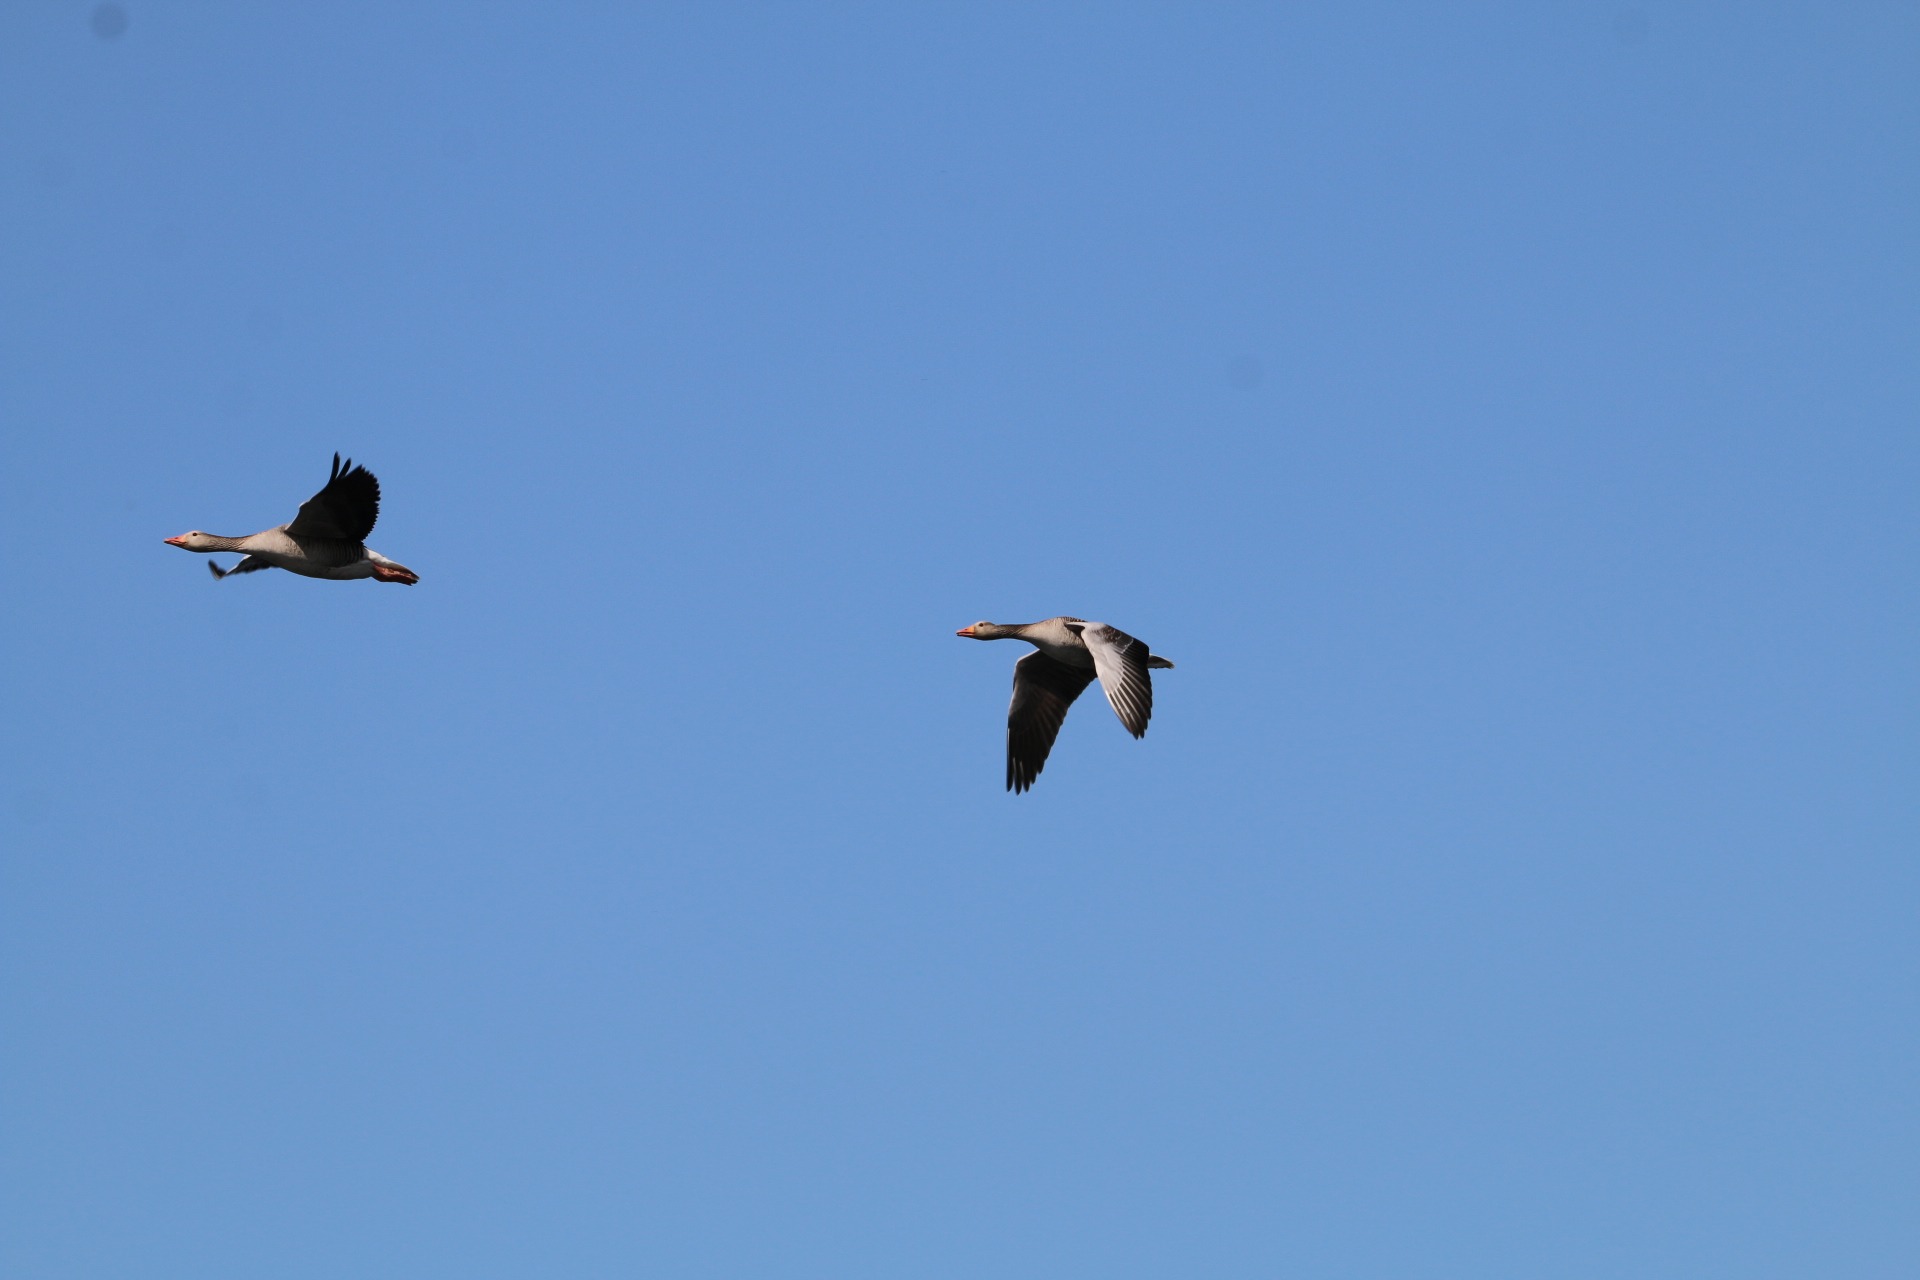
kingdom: Animalia
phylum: Chordata
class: Aves
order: Anseriformes
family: Anatidae
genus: Anser
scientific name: Anser anser
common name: Grågås
